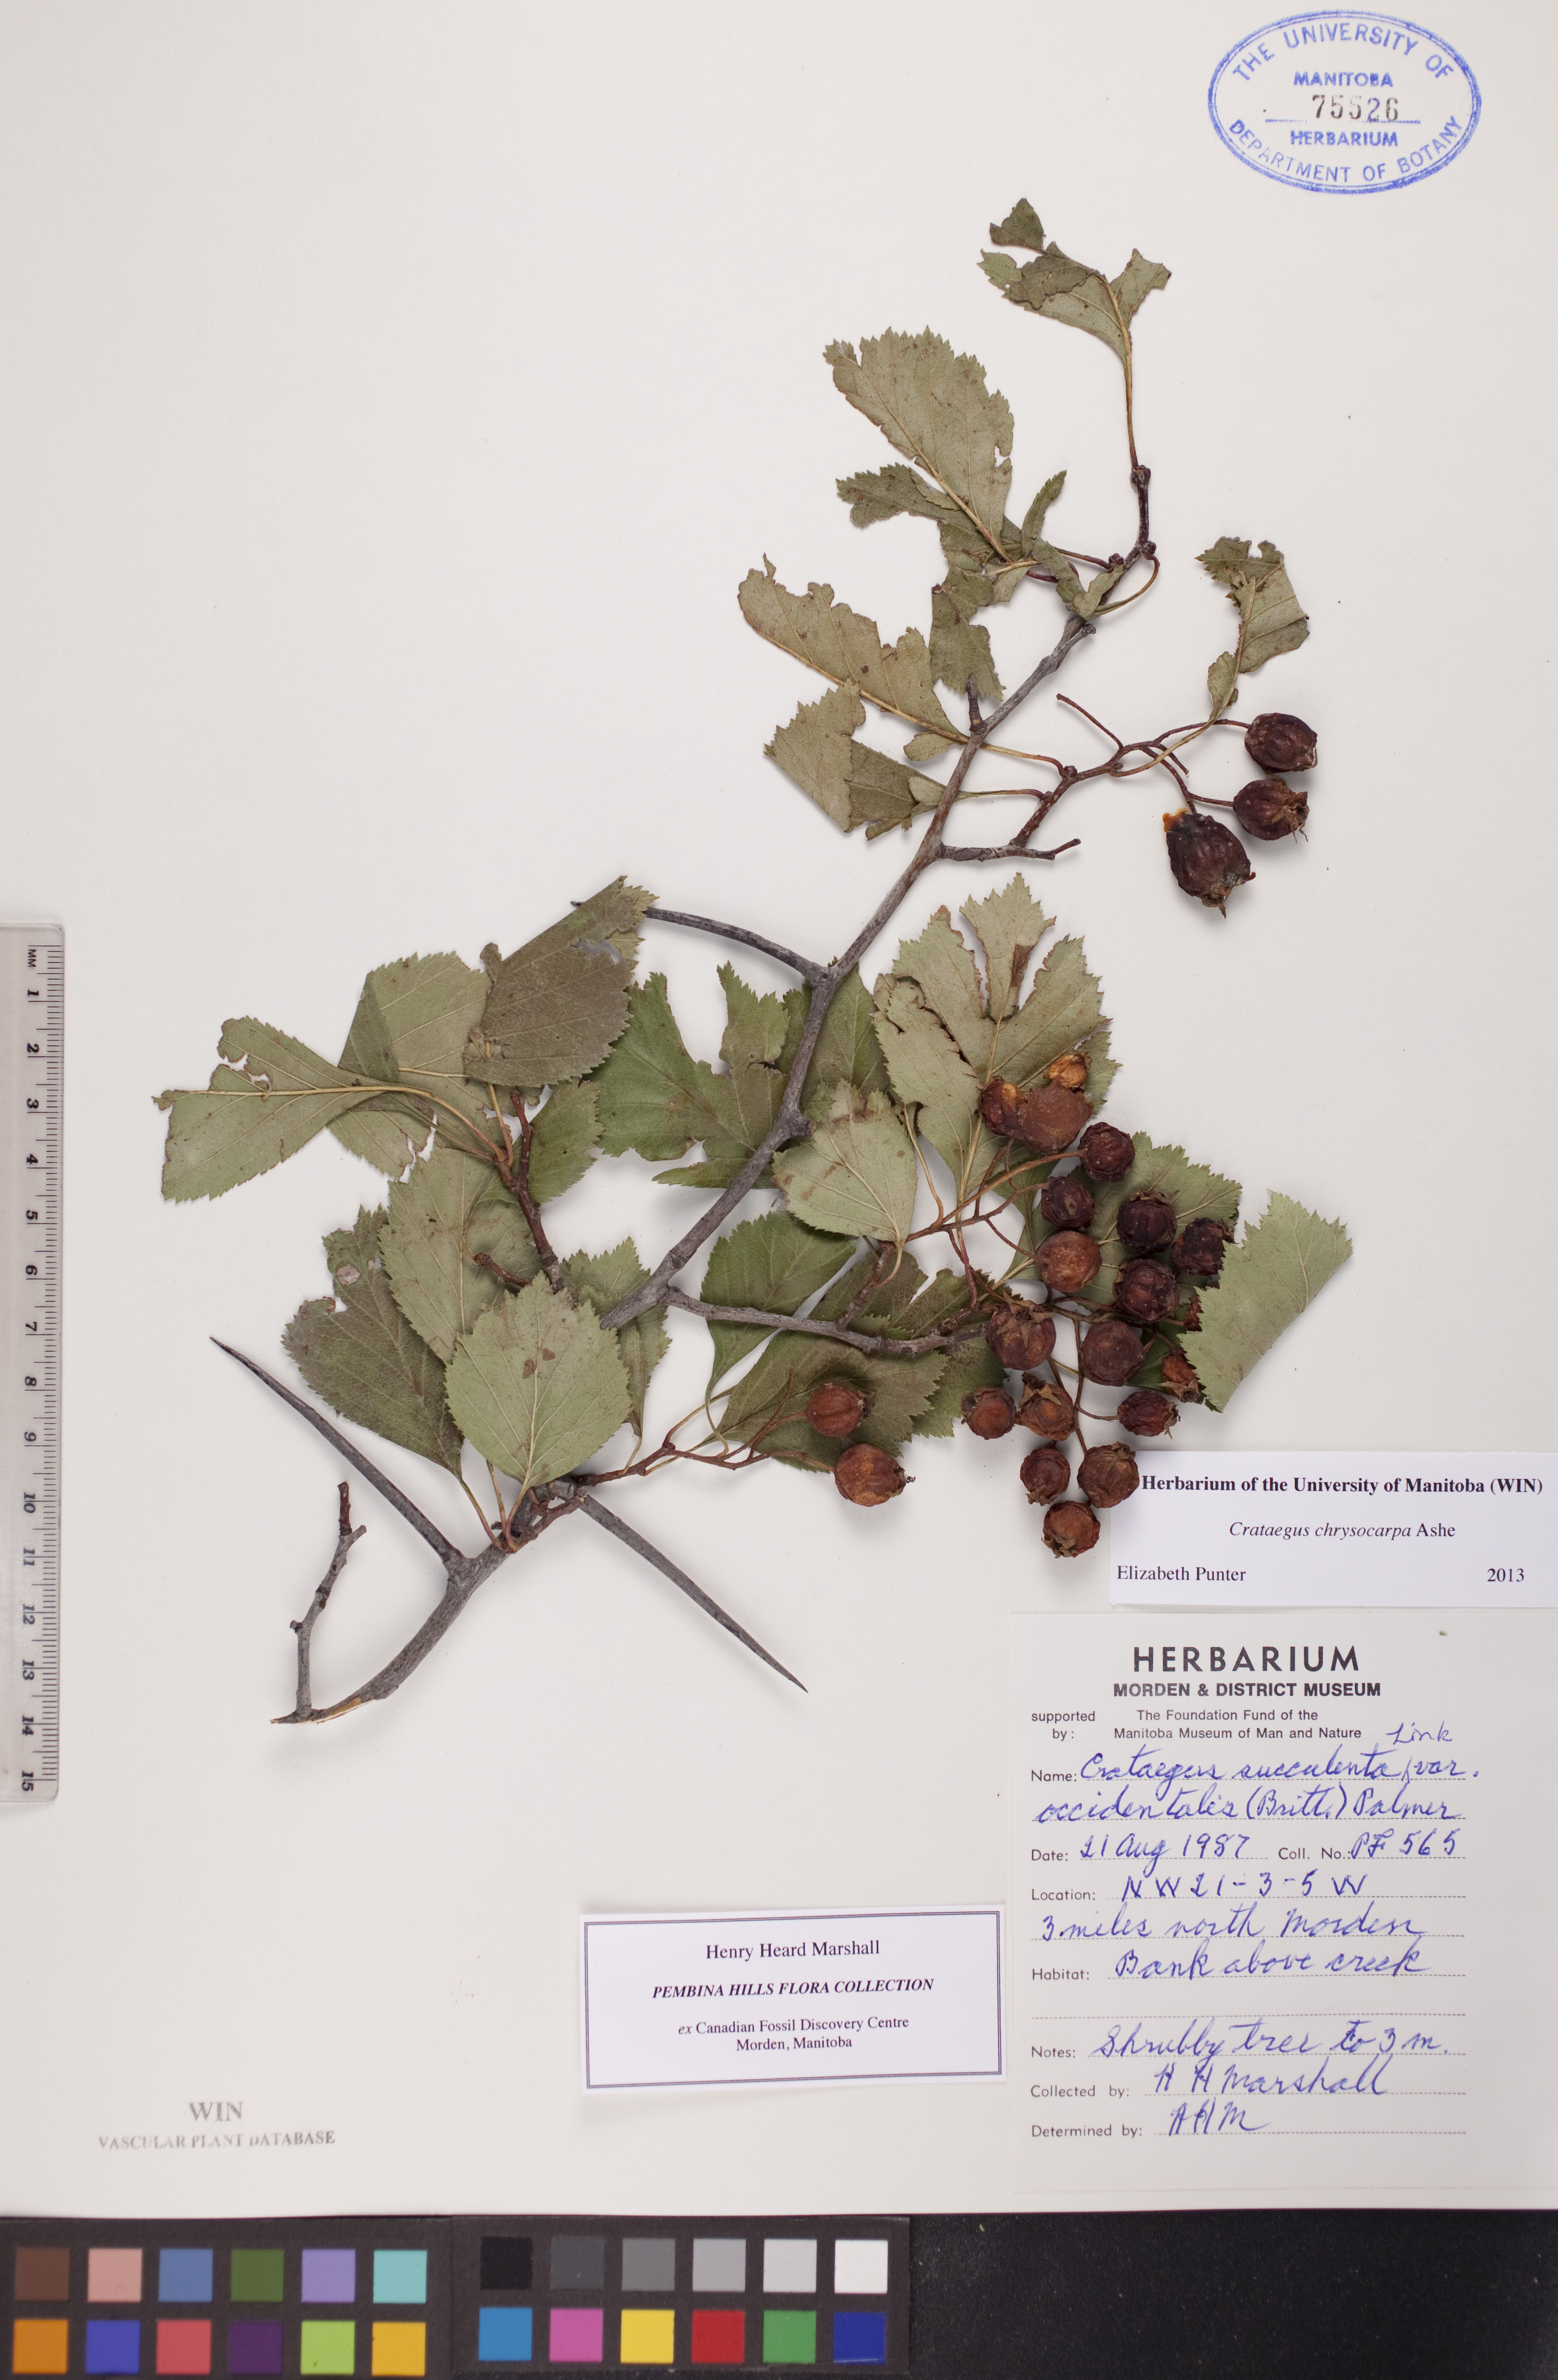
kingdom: Plantae
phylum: Tracheophyta
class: Magnoliopsida
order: Rosales
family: Rosaceae
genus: Crataegus
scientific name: Crataegus chrysocarpa
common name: Fire-berry hawthorn
